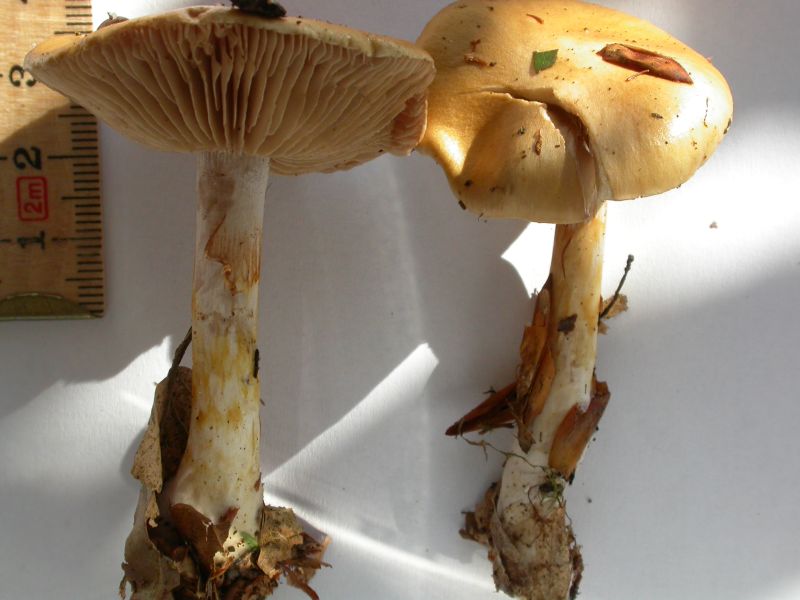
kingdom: Fungi
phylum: Basidiomycota
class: Agaricomycetes
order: Agaricales
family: Cortinariaceae
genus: Cortinarius
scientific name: Cortinarius delibutus
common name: gul slørhat
